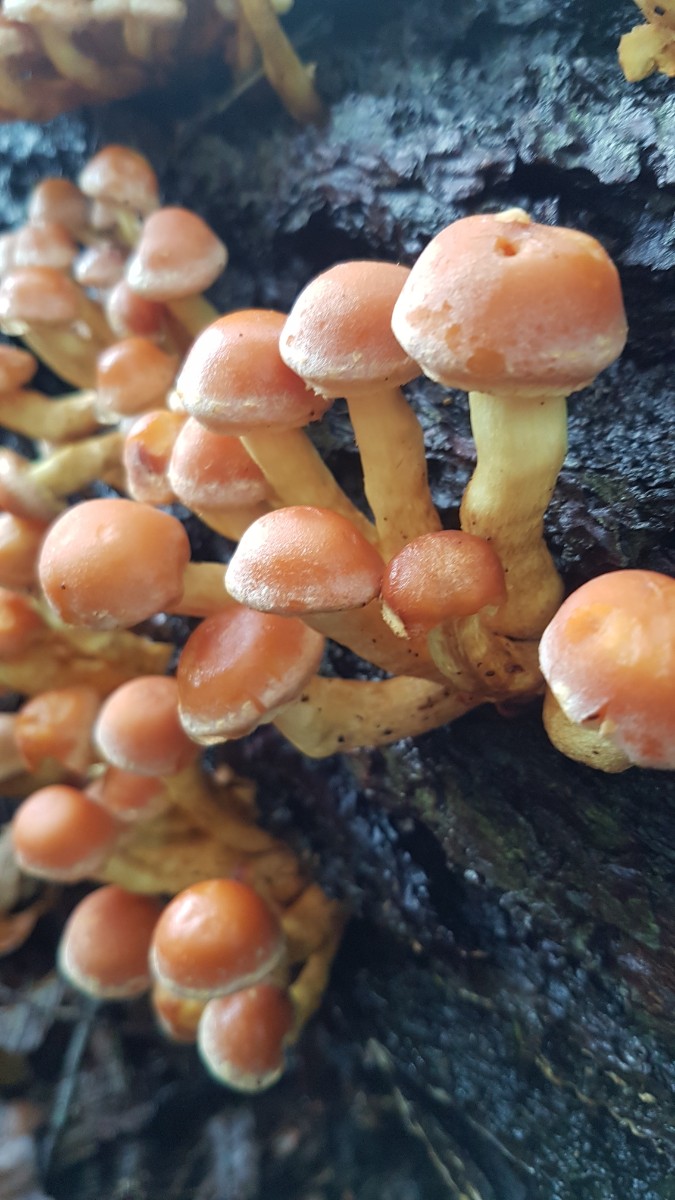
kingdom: Fungi
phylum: Basidiomycota
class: Agaricomycetes
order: Agaricales
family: Strophariaceae
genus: Hypholoma
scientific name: Hypholoma fasciculare
